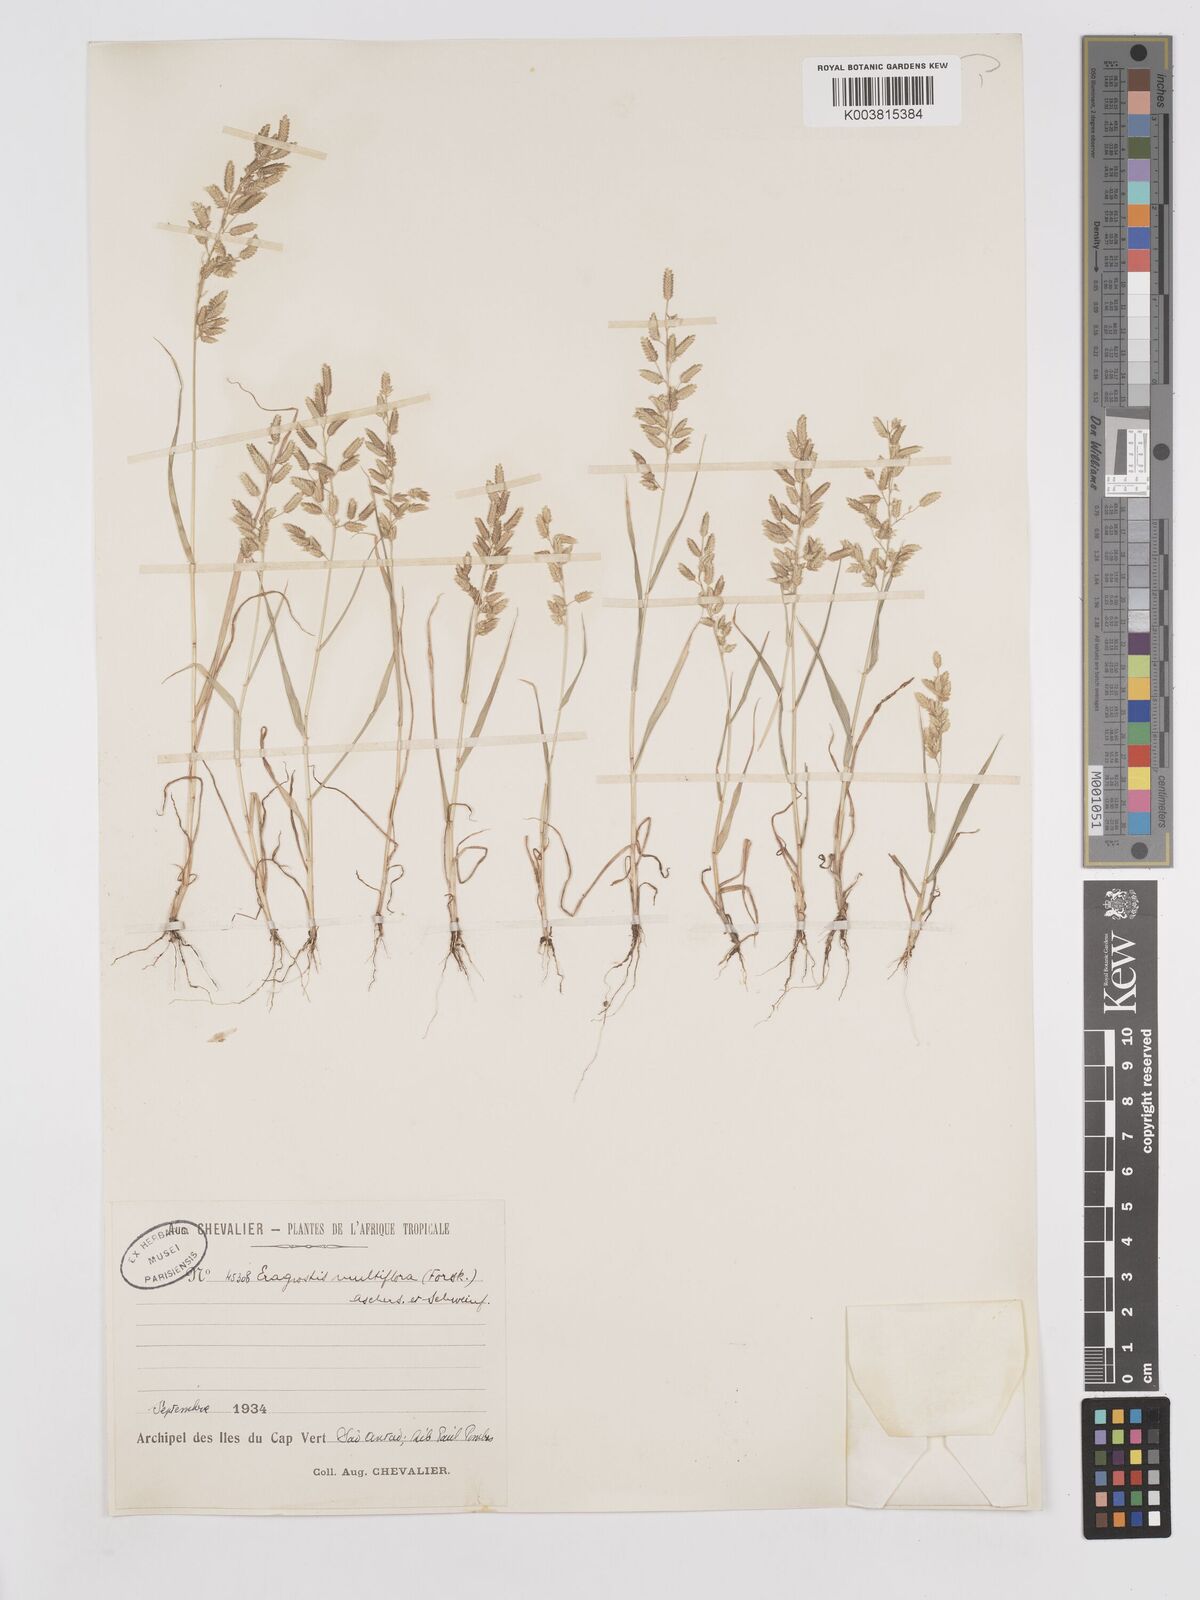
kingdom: Plantae
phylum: Tracheophyta
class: Liliopsida
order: Poales
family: Poaceae
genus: Eragrostis
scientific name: Eragrostis cilianensis
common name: Stinkgrass
